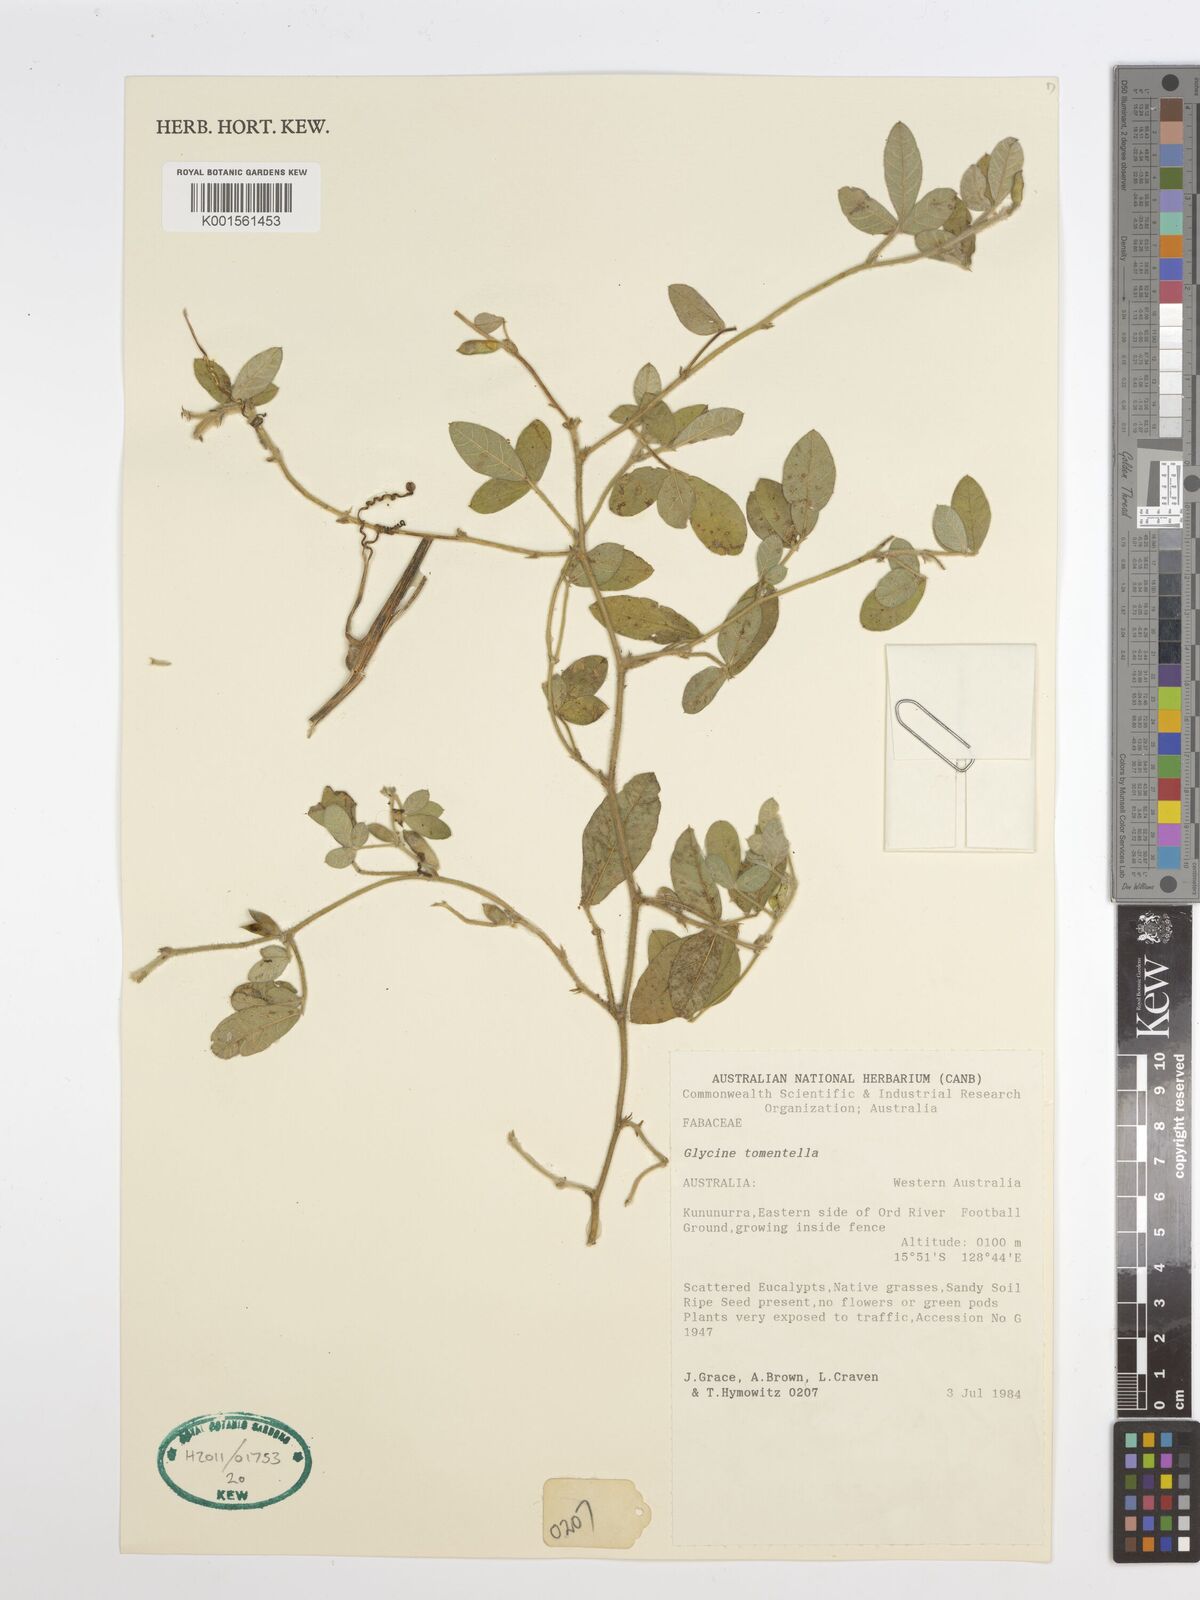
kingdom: Plantae
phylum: Tracheophyta
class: Magnoliopsida
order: Fabales
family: Fabaceae
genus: Glycine
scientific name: Glycine tomentella
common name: Hairy glycine
